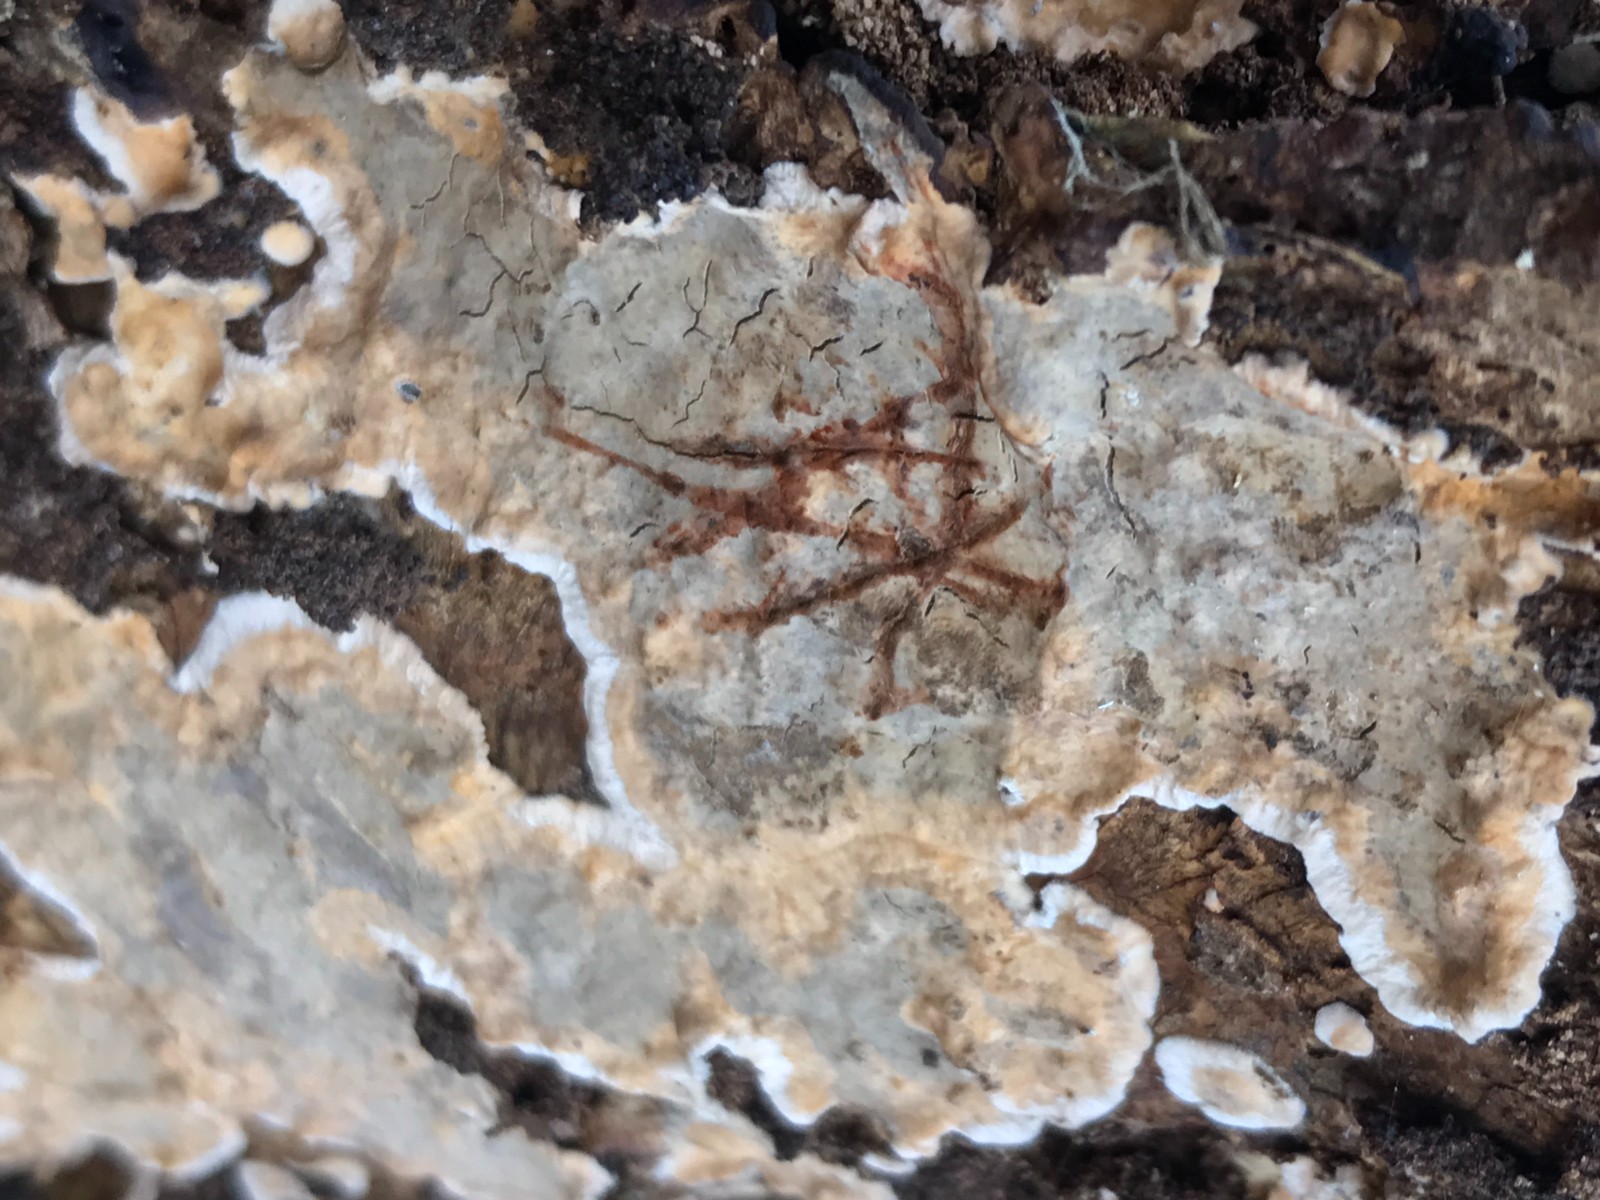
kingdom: Fungi
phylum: Basidiomycota
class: Agaricomycetes
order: Russulales
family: Stereaceae
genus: Stereum
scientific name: Stereum rugosum
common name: rynket lædersvamp
